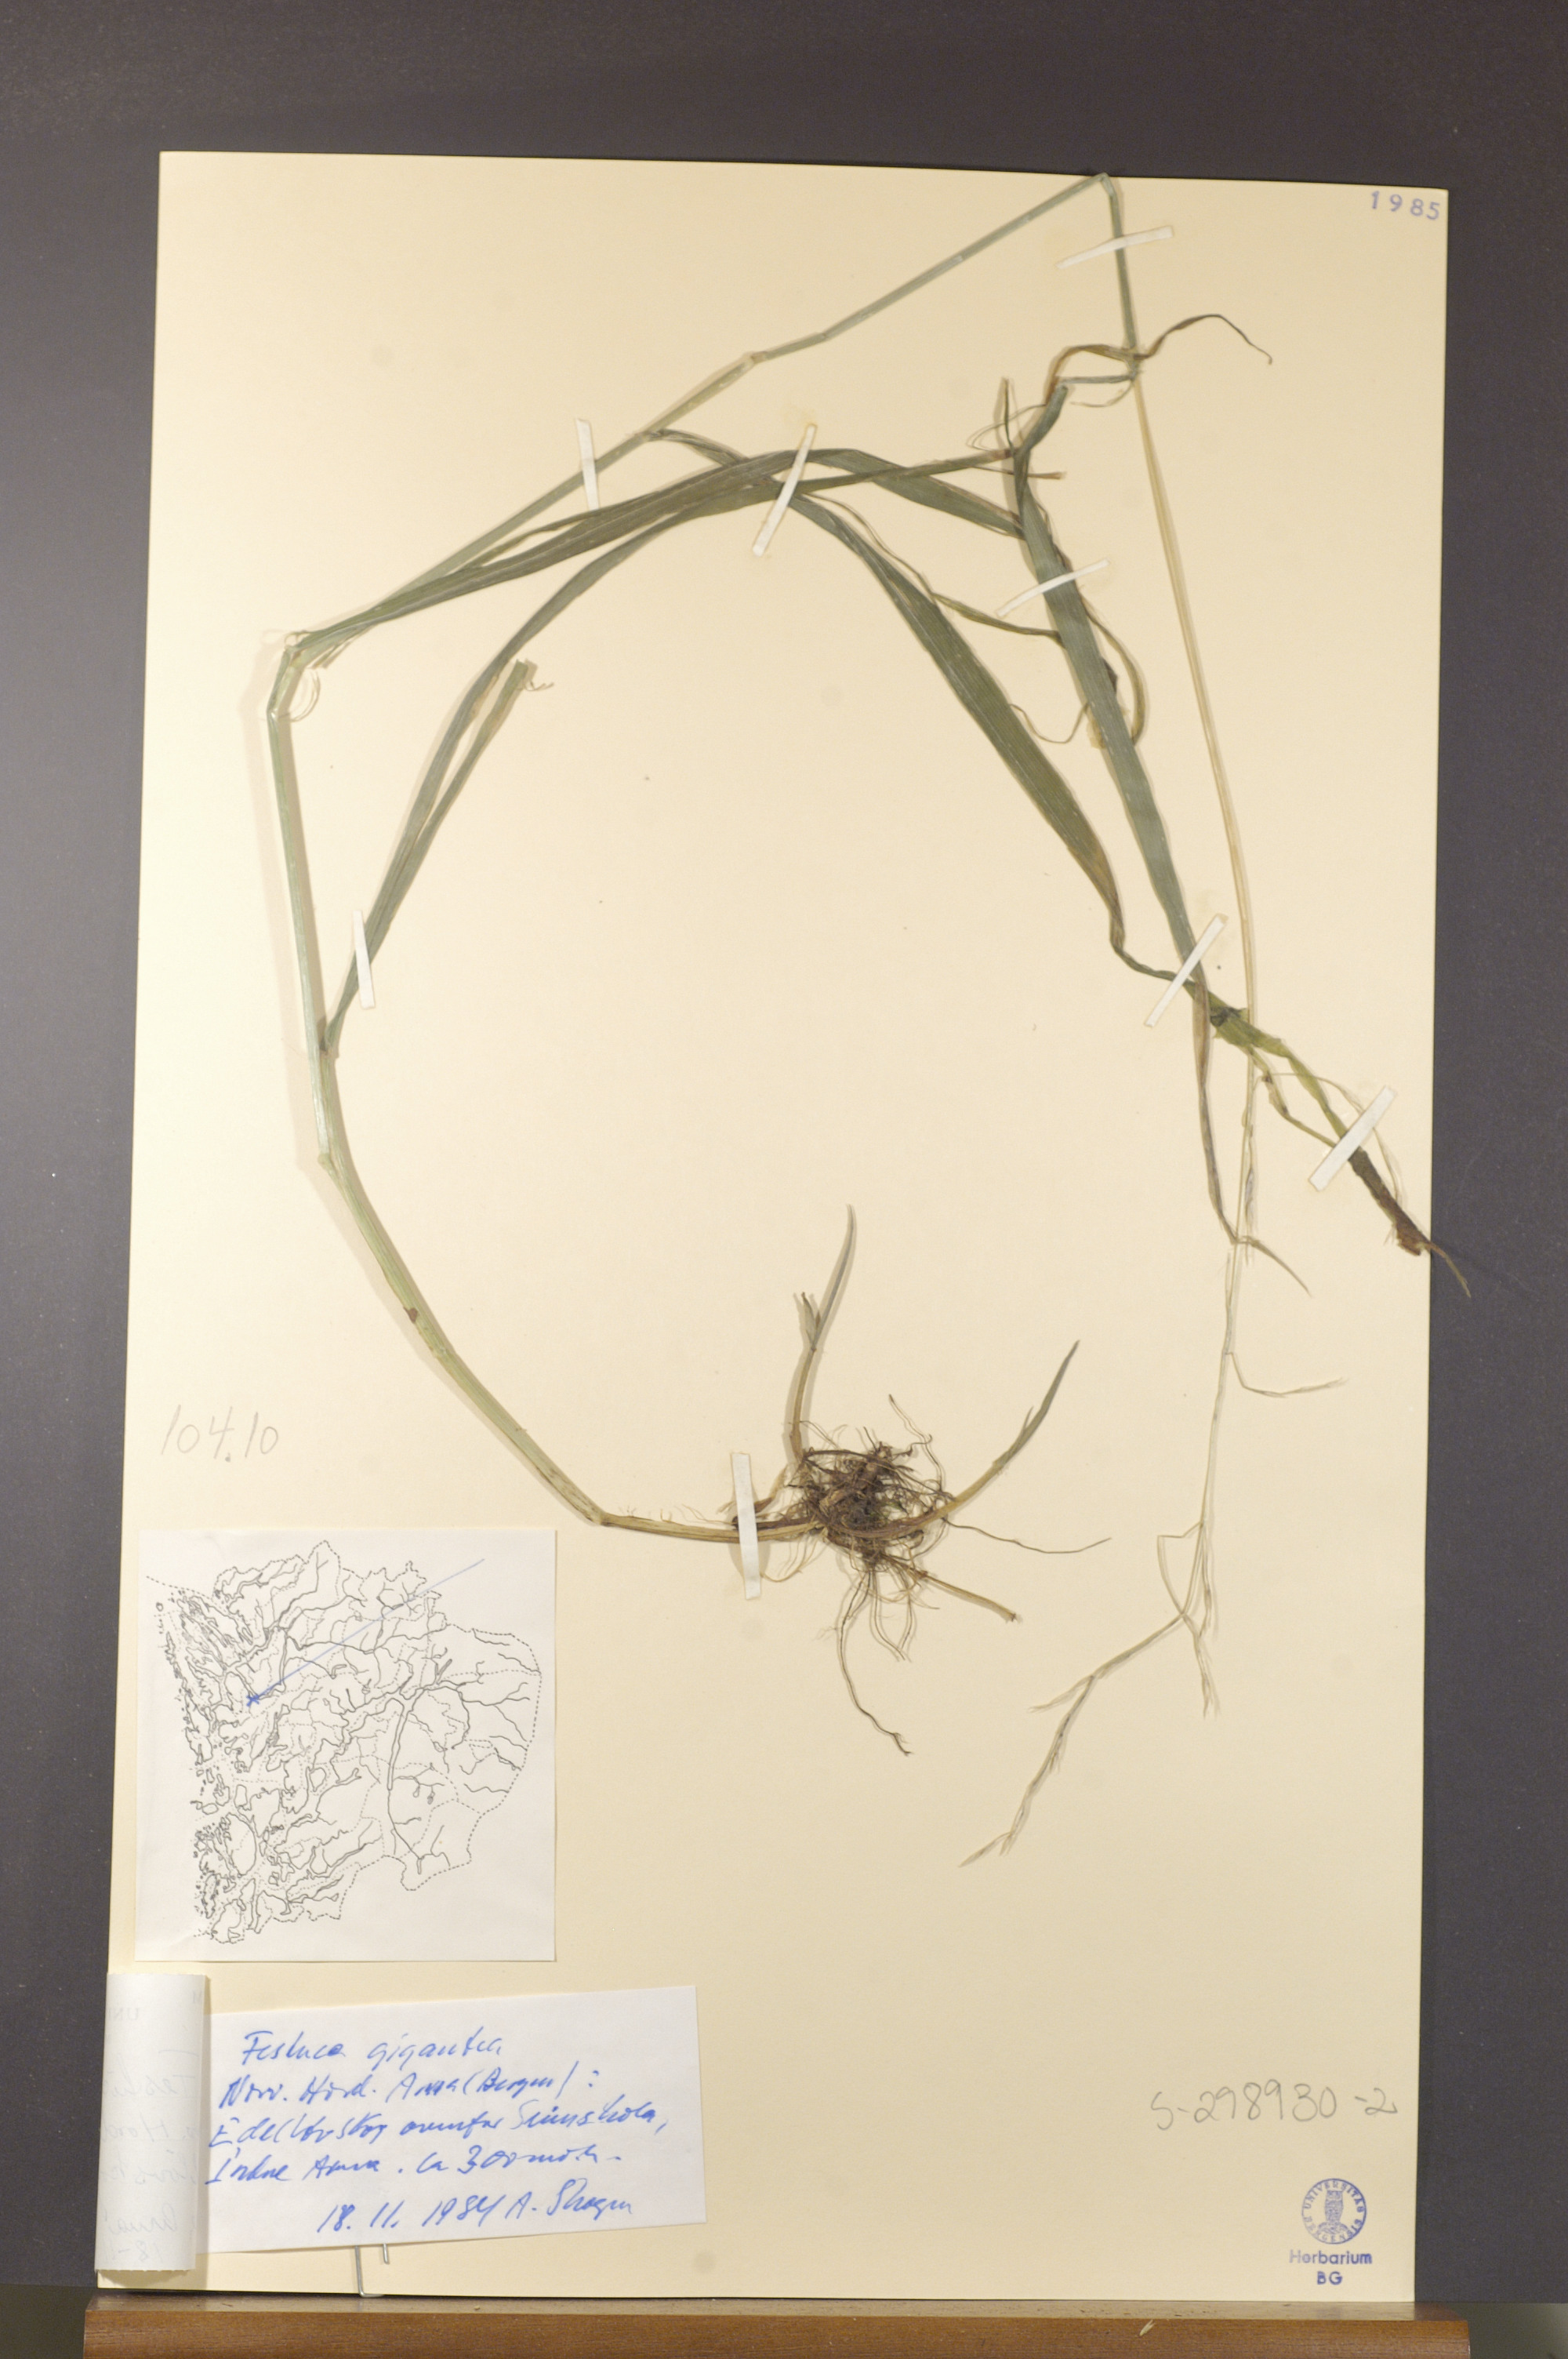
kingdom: Plantae
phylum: Tracheophyta
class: Liliopsida
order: Poales
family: Poaceae
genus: Lolium
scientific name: Lolium giganteum
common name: Giant fescue
